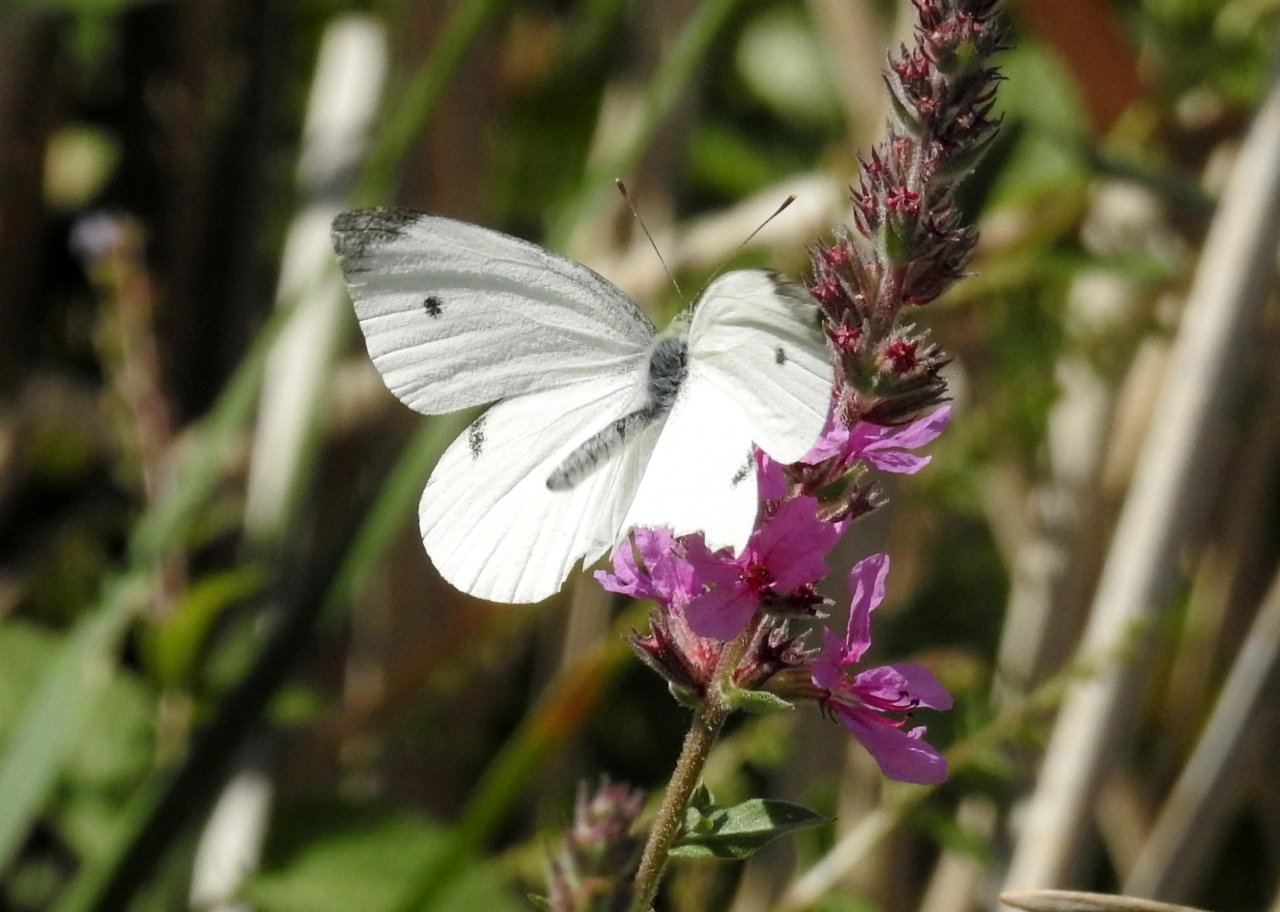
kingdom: Animalia
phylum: Arthropoda
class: Insecta
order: Lepidoptera
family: Pieridae
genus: Pieris
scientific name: Pieris rapae
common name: Cabbage White
